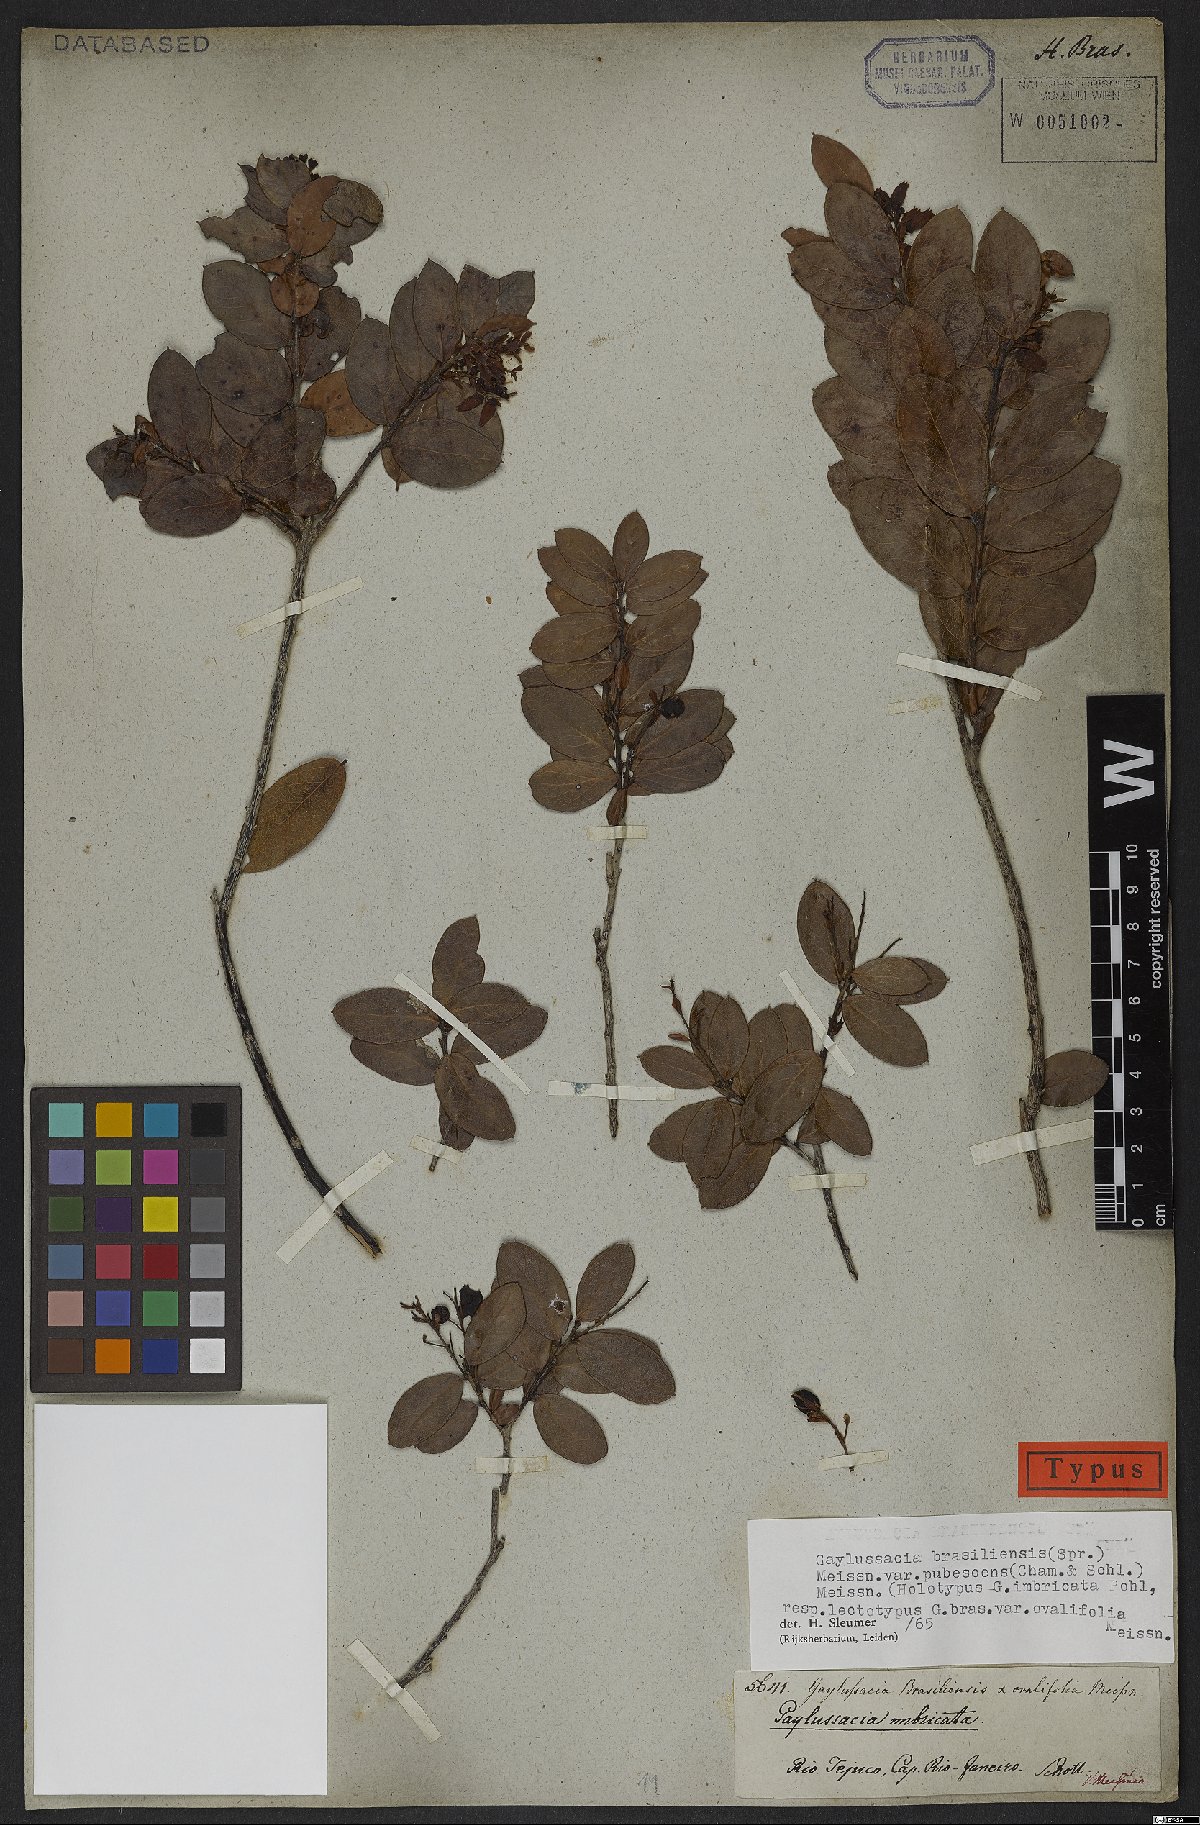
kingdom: Plantae
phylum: Tracheophyta
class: Magnoliopsida
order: Ericales
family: Ericaceae
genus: Gaylussacia
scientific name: Gaylussacia brasiliensis
